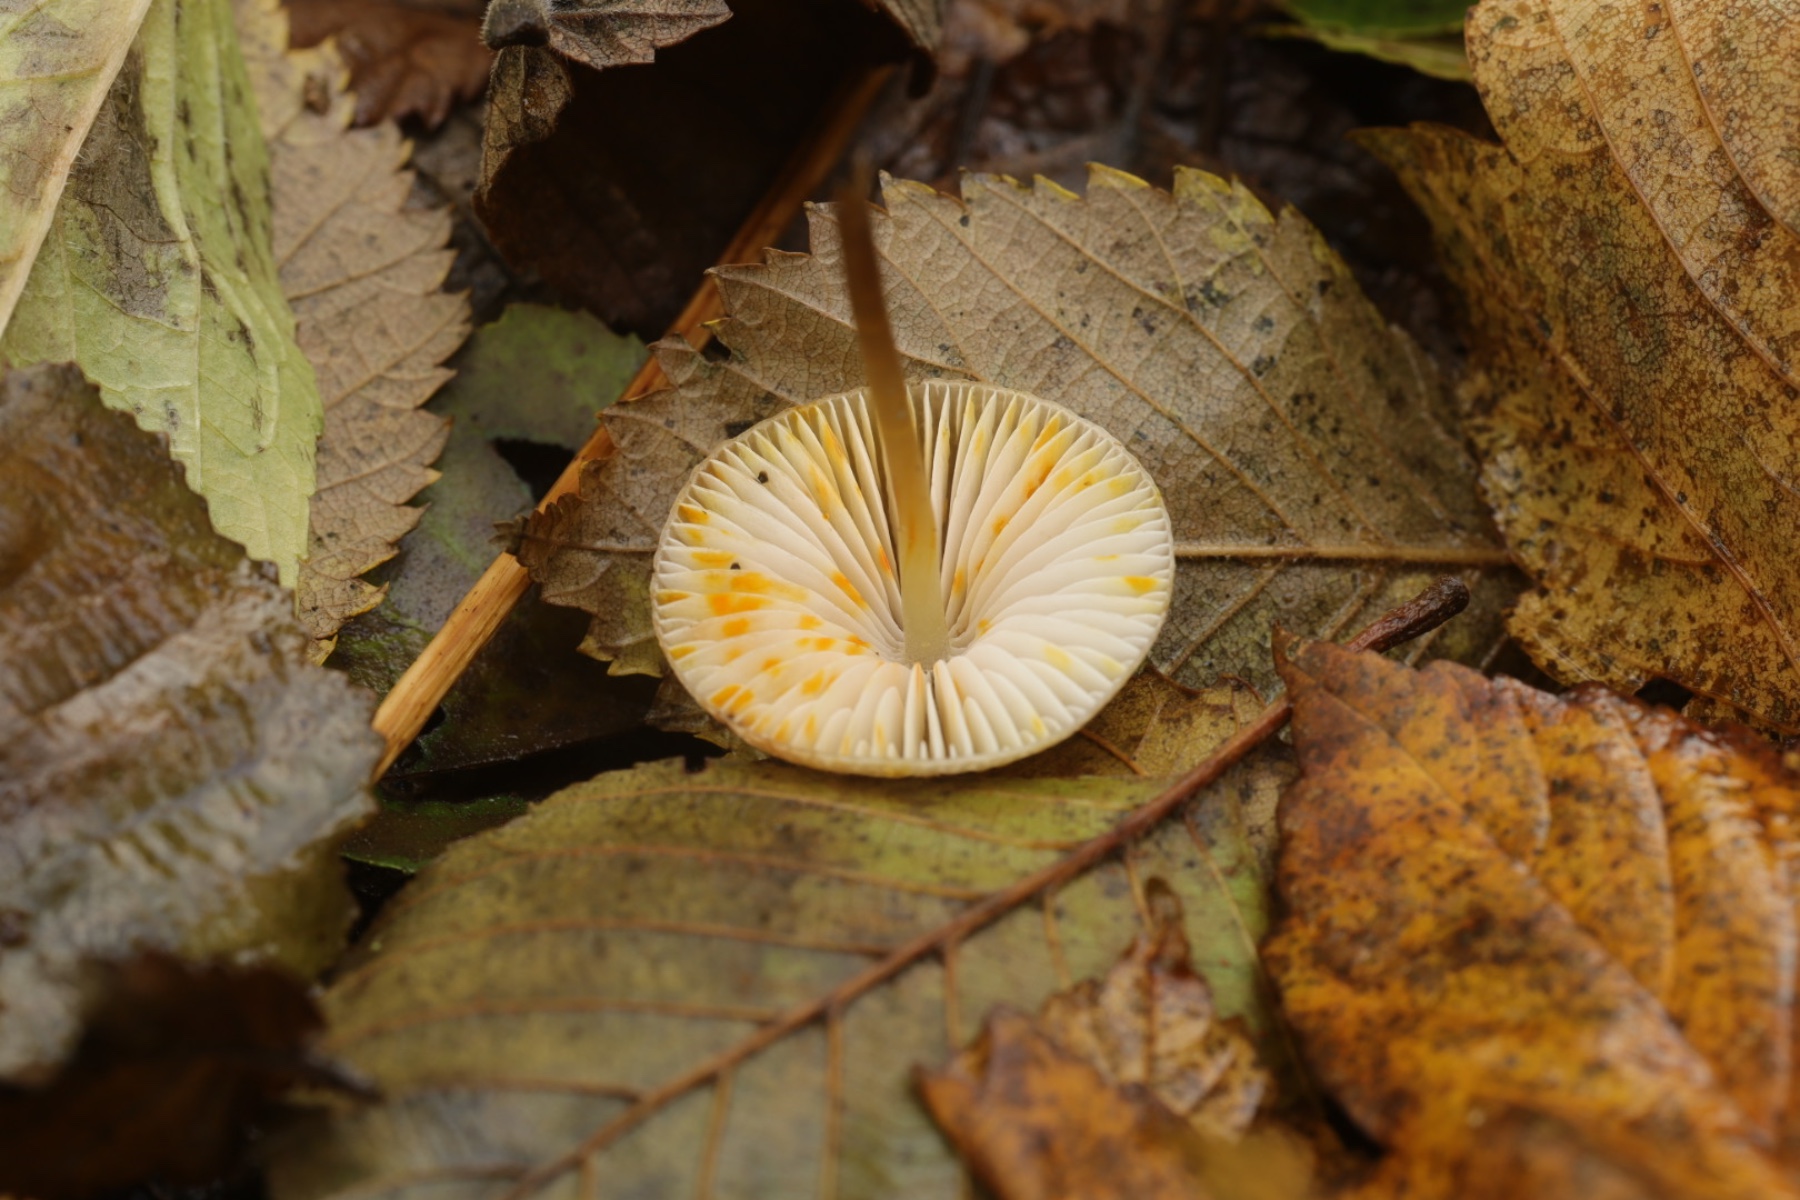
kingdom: Fungi
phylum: Basidiomycota
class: Agaricomycetes
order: Agaricales
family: Mycenaceae
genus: Mycena
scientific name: Mycena crocata
